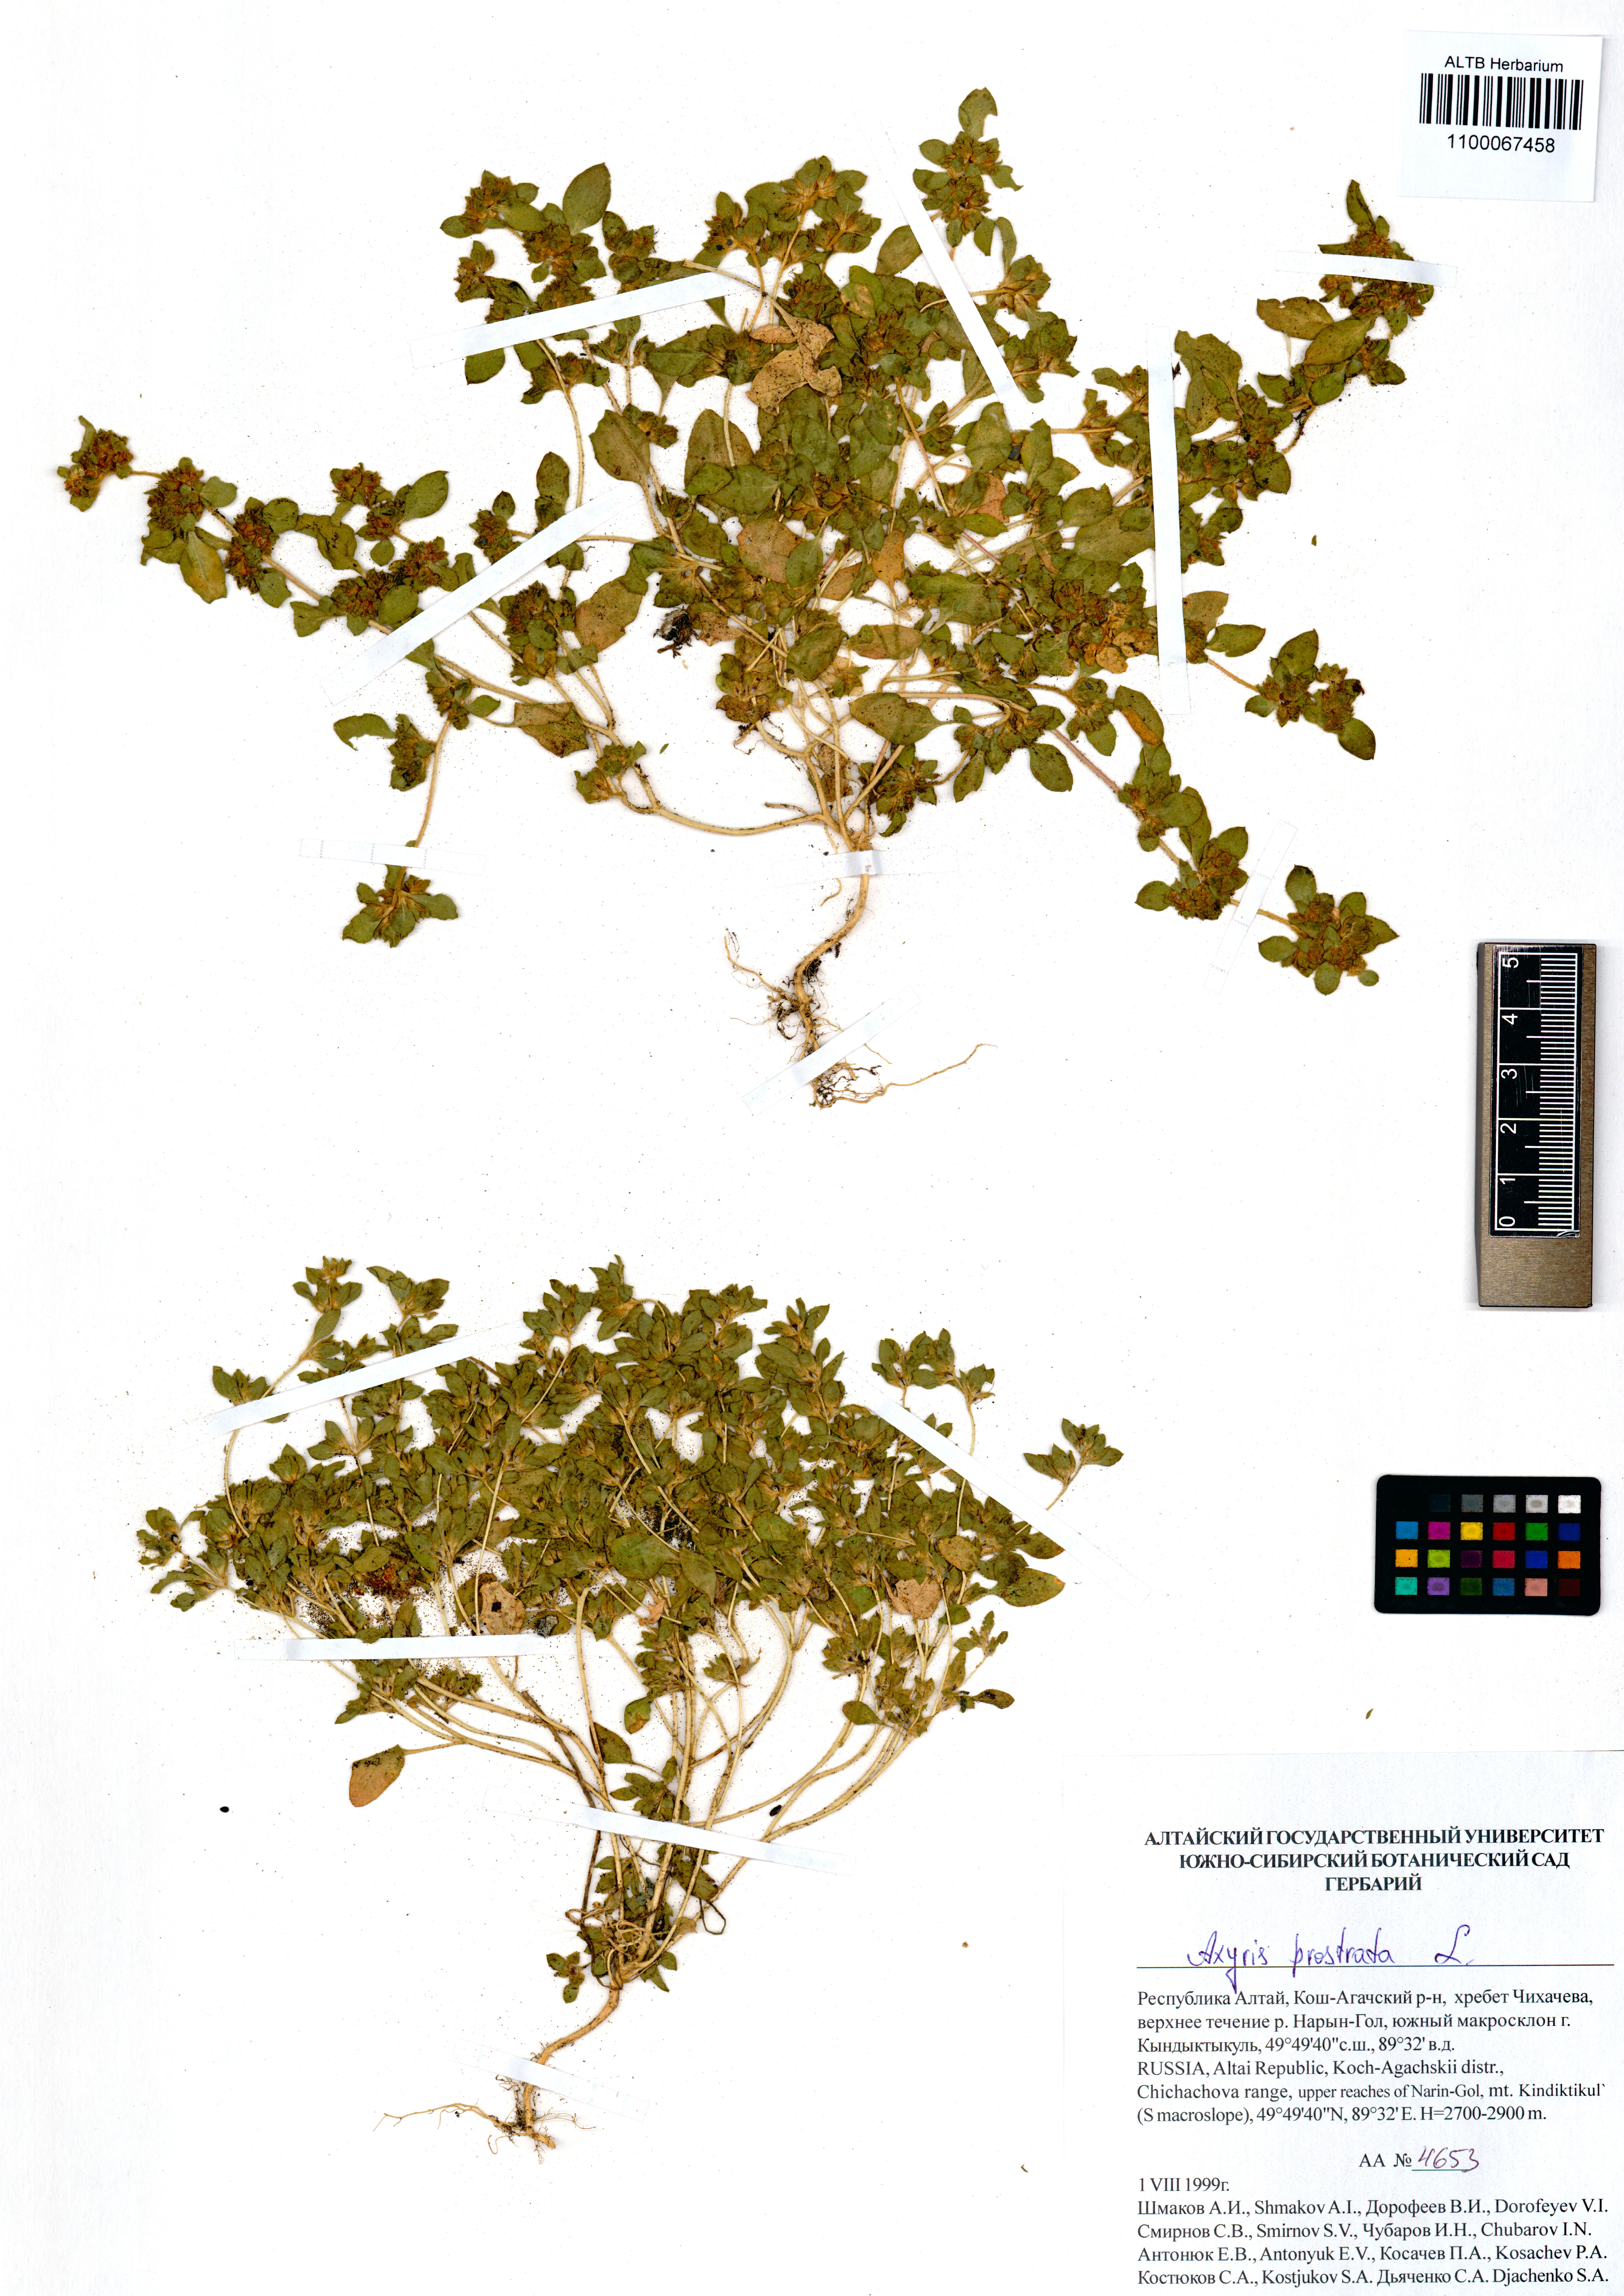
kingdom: Plantae
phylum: Tracheophyta
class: Magnoliopsida
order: Caryophyllales
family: Amaranthaceae
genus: Axyris
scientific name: Axyris prostrata
